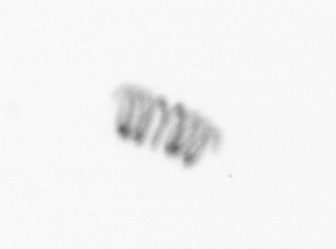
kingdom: Chromista
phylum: Ochrophyta
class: Bacillariophyceae
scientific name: Bacillariophyceae
